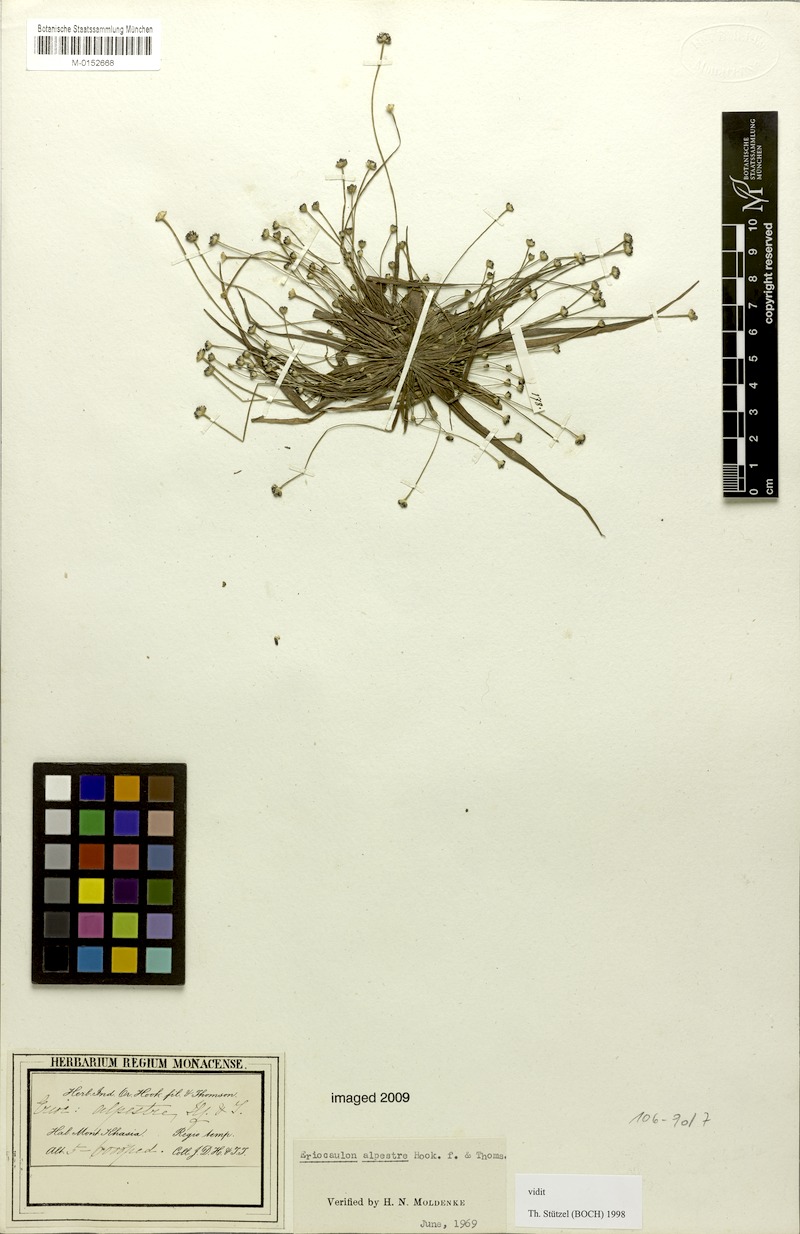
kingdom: Plantae
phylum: Tracheophyta
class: Liliopsida
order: Poales
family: Eriocaulaceae
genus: Eriocaulon
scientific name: Eriocaulon alpestre
